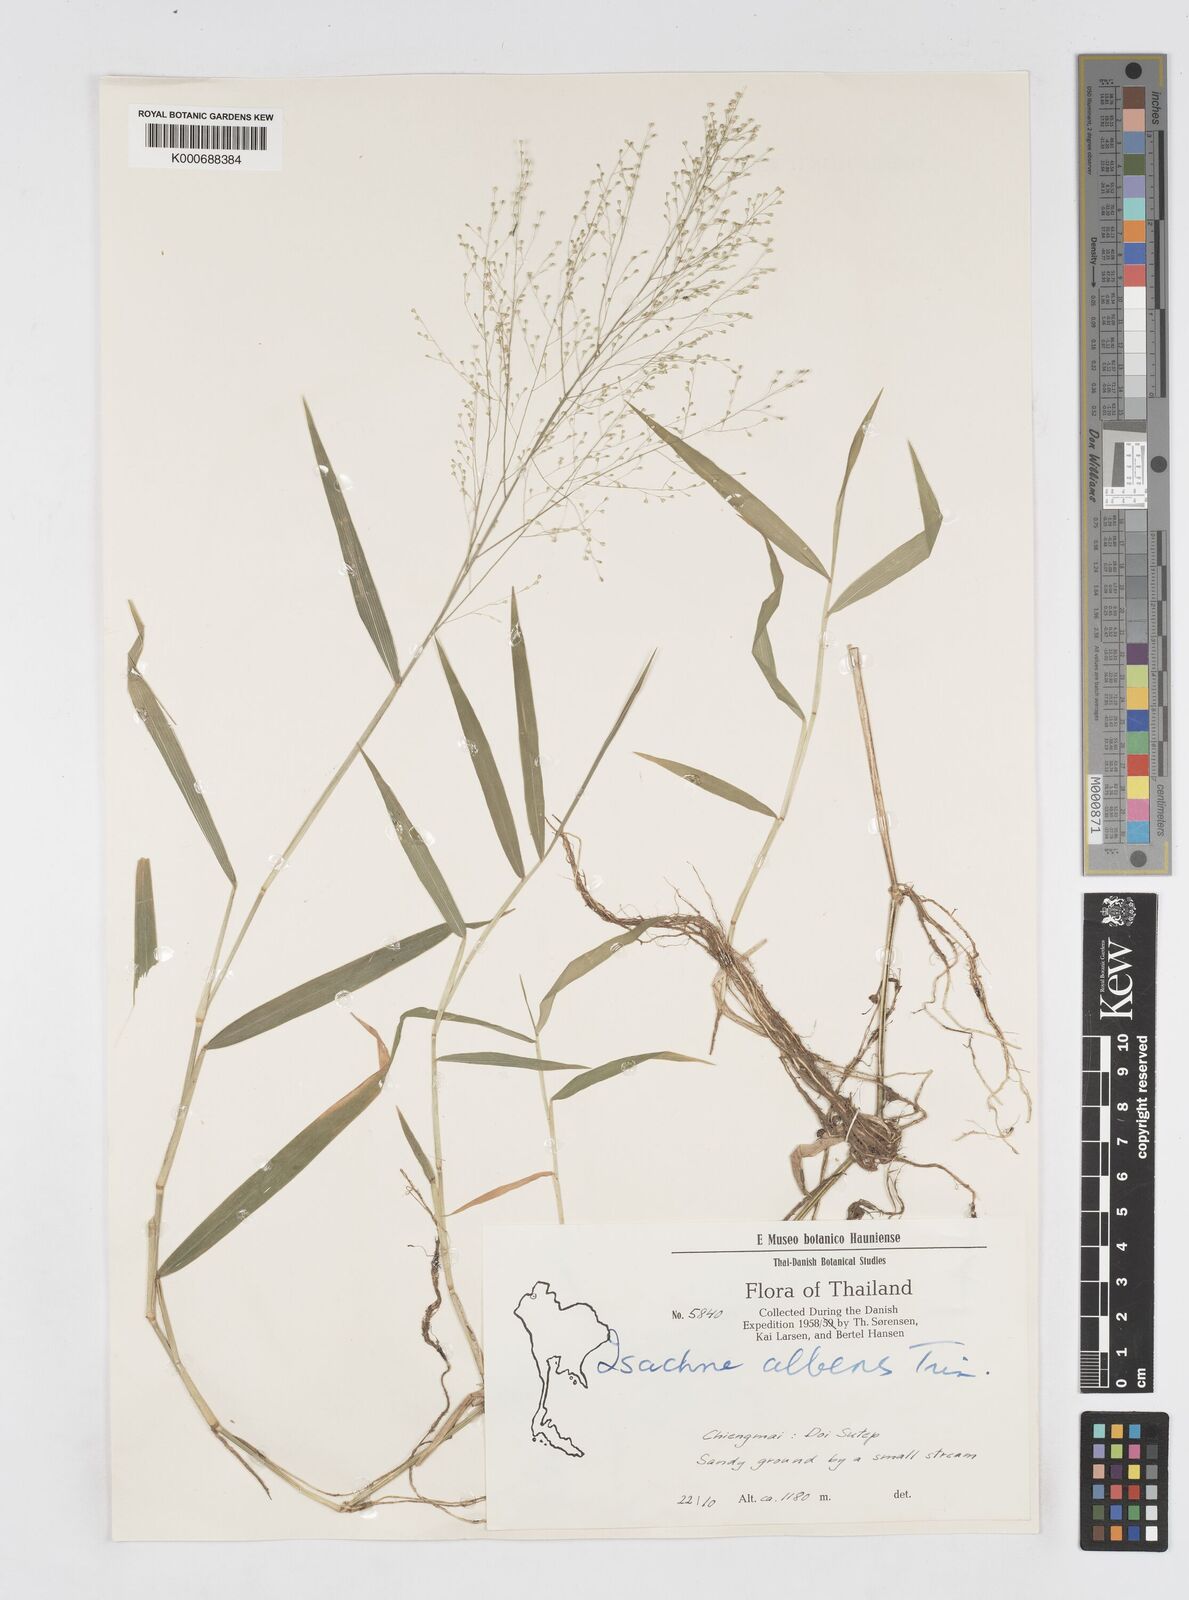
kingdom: Plantae
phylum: Tracheophyta
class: Liliopsida
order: Poales
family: Poaceae
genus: Isachne
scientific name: Isachne albens
